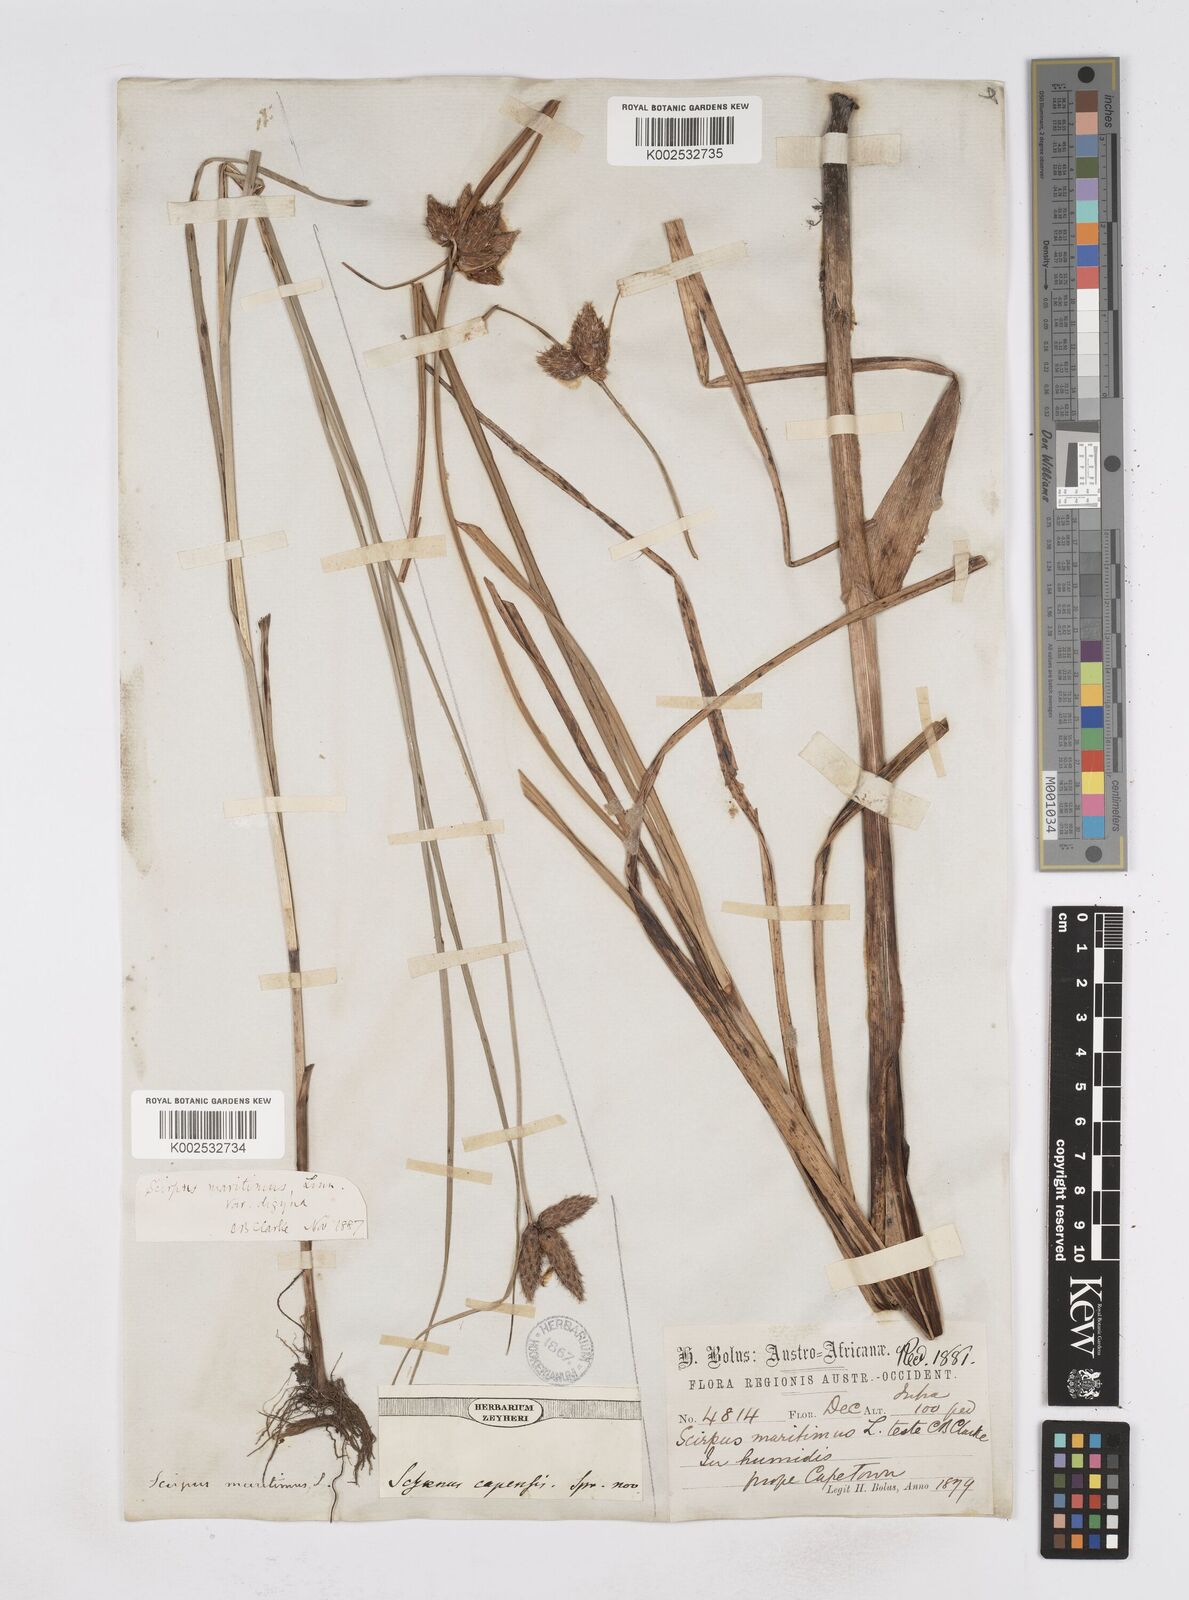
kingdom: Plantae
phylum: Tracheophyta
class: Liliopsida
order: Poales
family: Cyperaceae
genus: Bolboschoenus
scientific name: Bolboschoenus maritimus
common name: Sea club-rush
